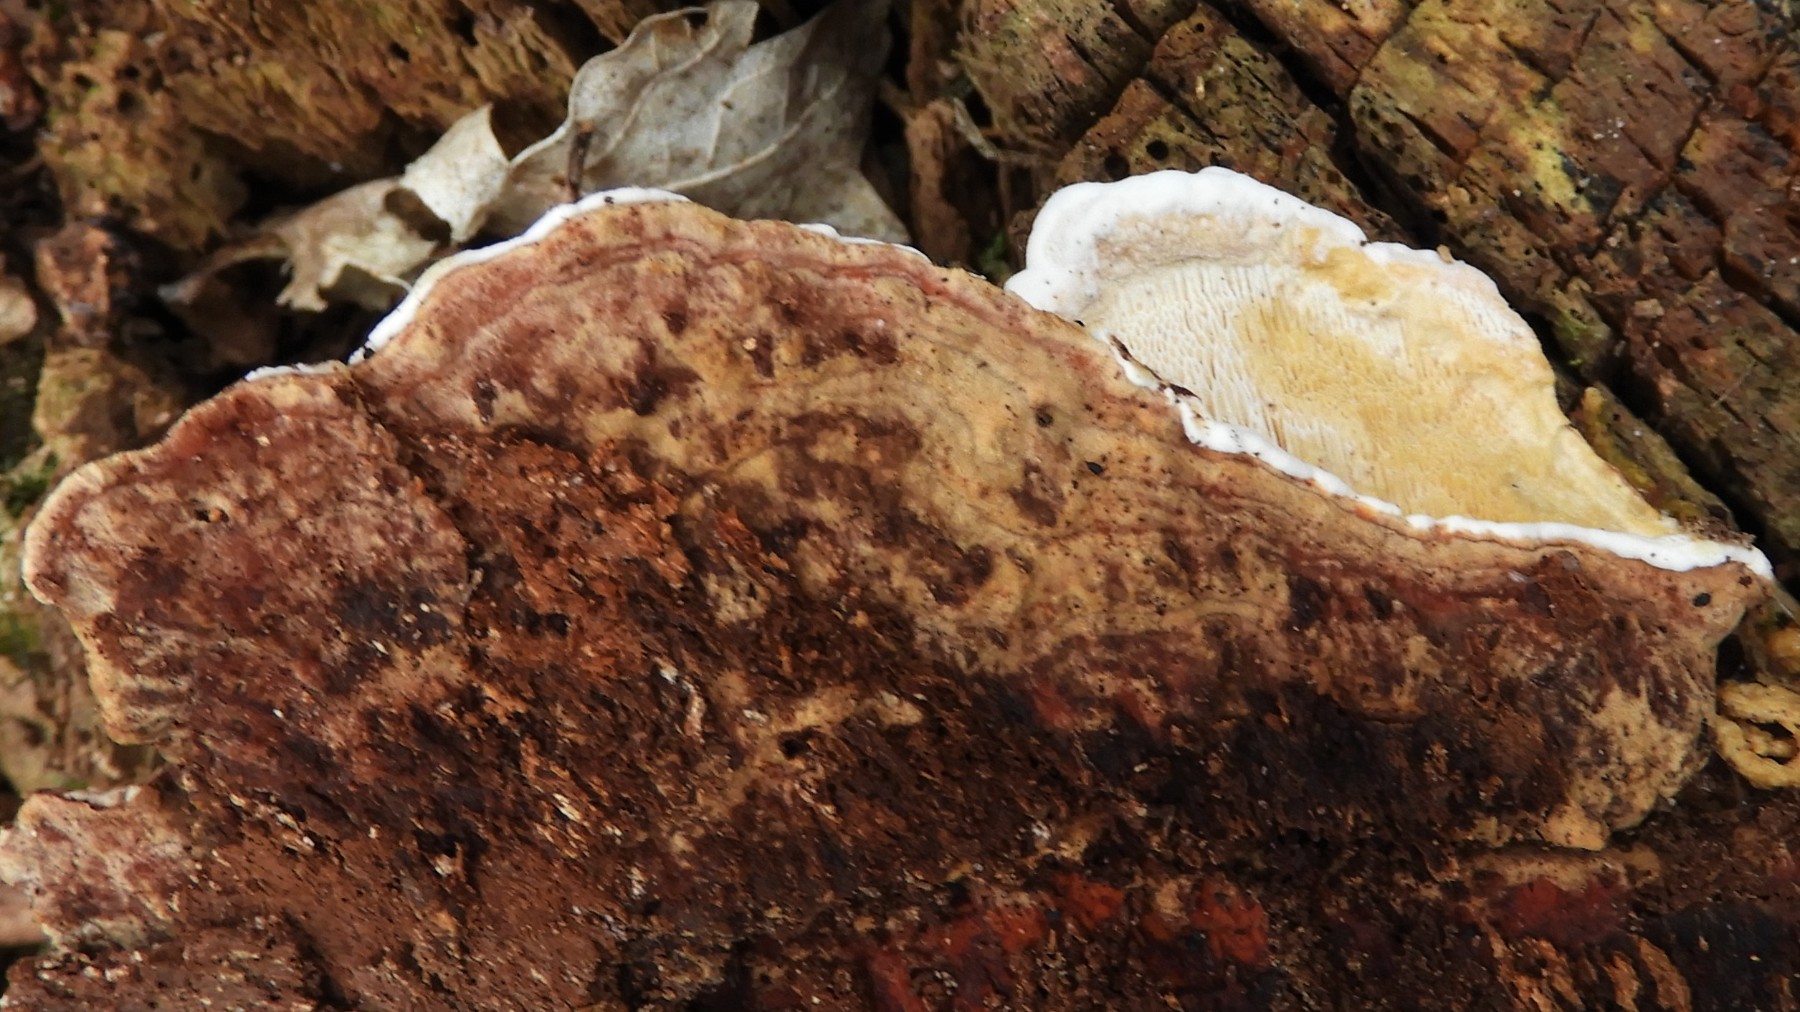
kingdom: Fungi
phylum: Basidiomycota
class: Agaricomycetes
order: Russulales
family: Bondarzewiaceae
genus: Heterobasidion
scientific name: Heterobasidion parviporum
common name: småporet rodfordærver
